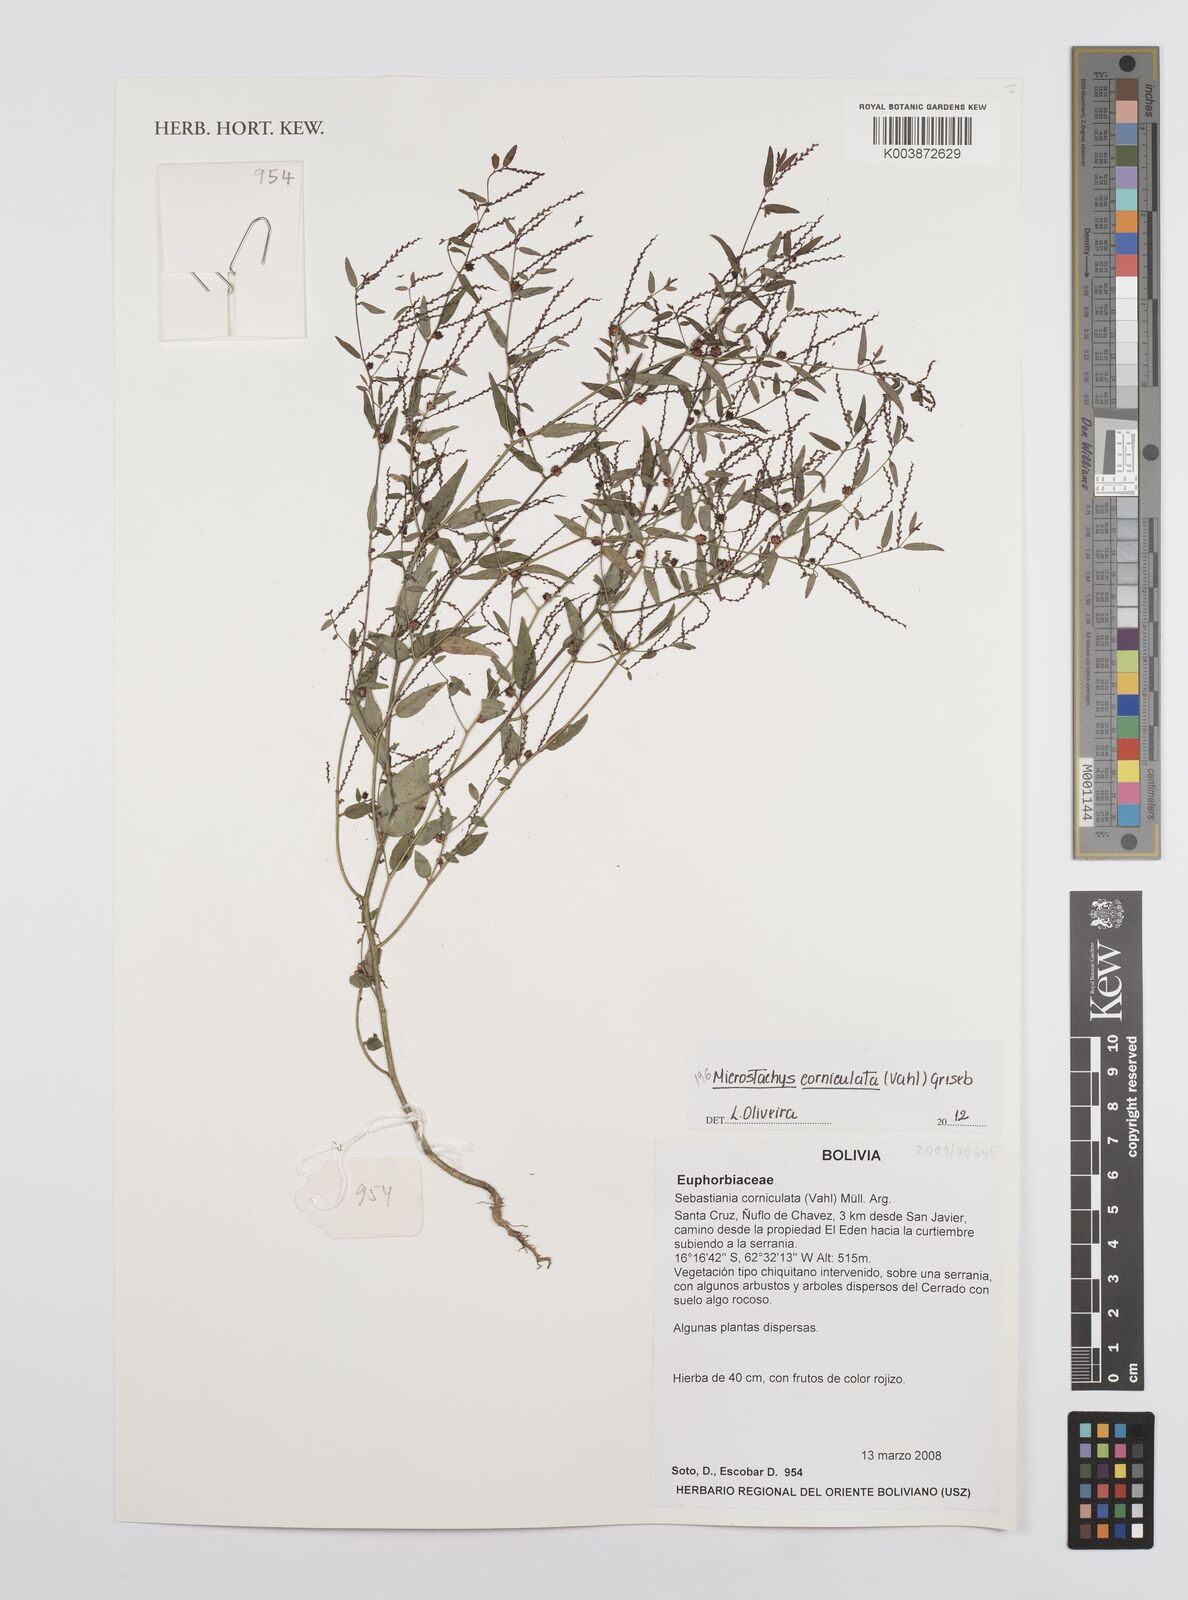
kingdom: Plantae
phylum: Tracheophyta
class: Magnoliopsida
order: Malpighiales
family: Euphorbiaceae
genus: Microstachys
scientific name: Microstachys corniculata
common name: Hato tejas
